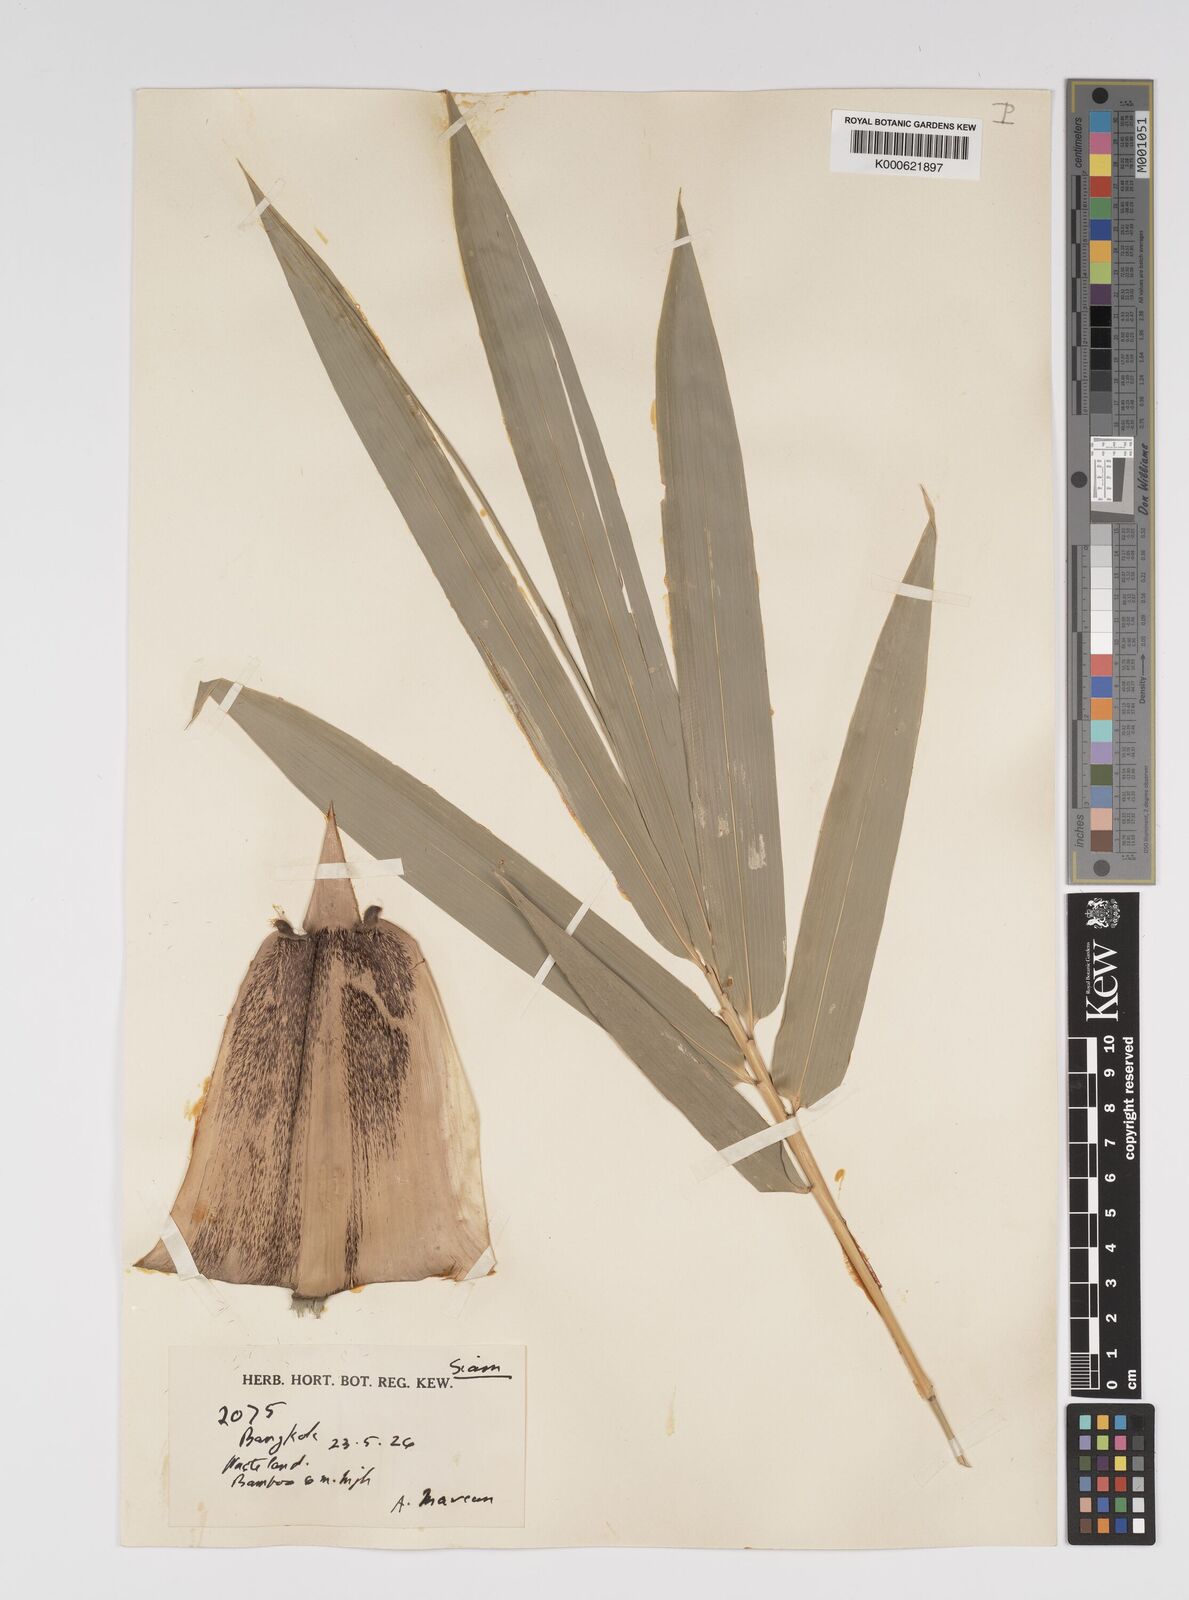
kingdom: Plantae
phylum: Tracheophyta
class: Liliopsida
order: Poales
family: Poaceae
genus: Bambusa
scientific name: Bambusa
